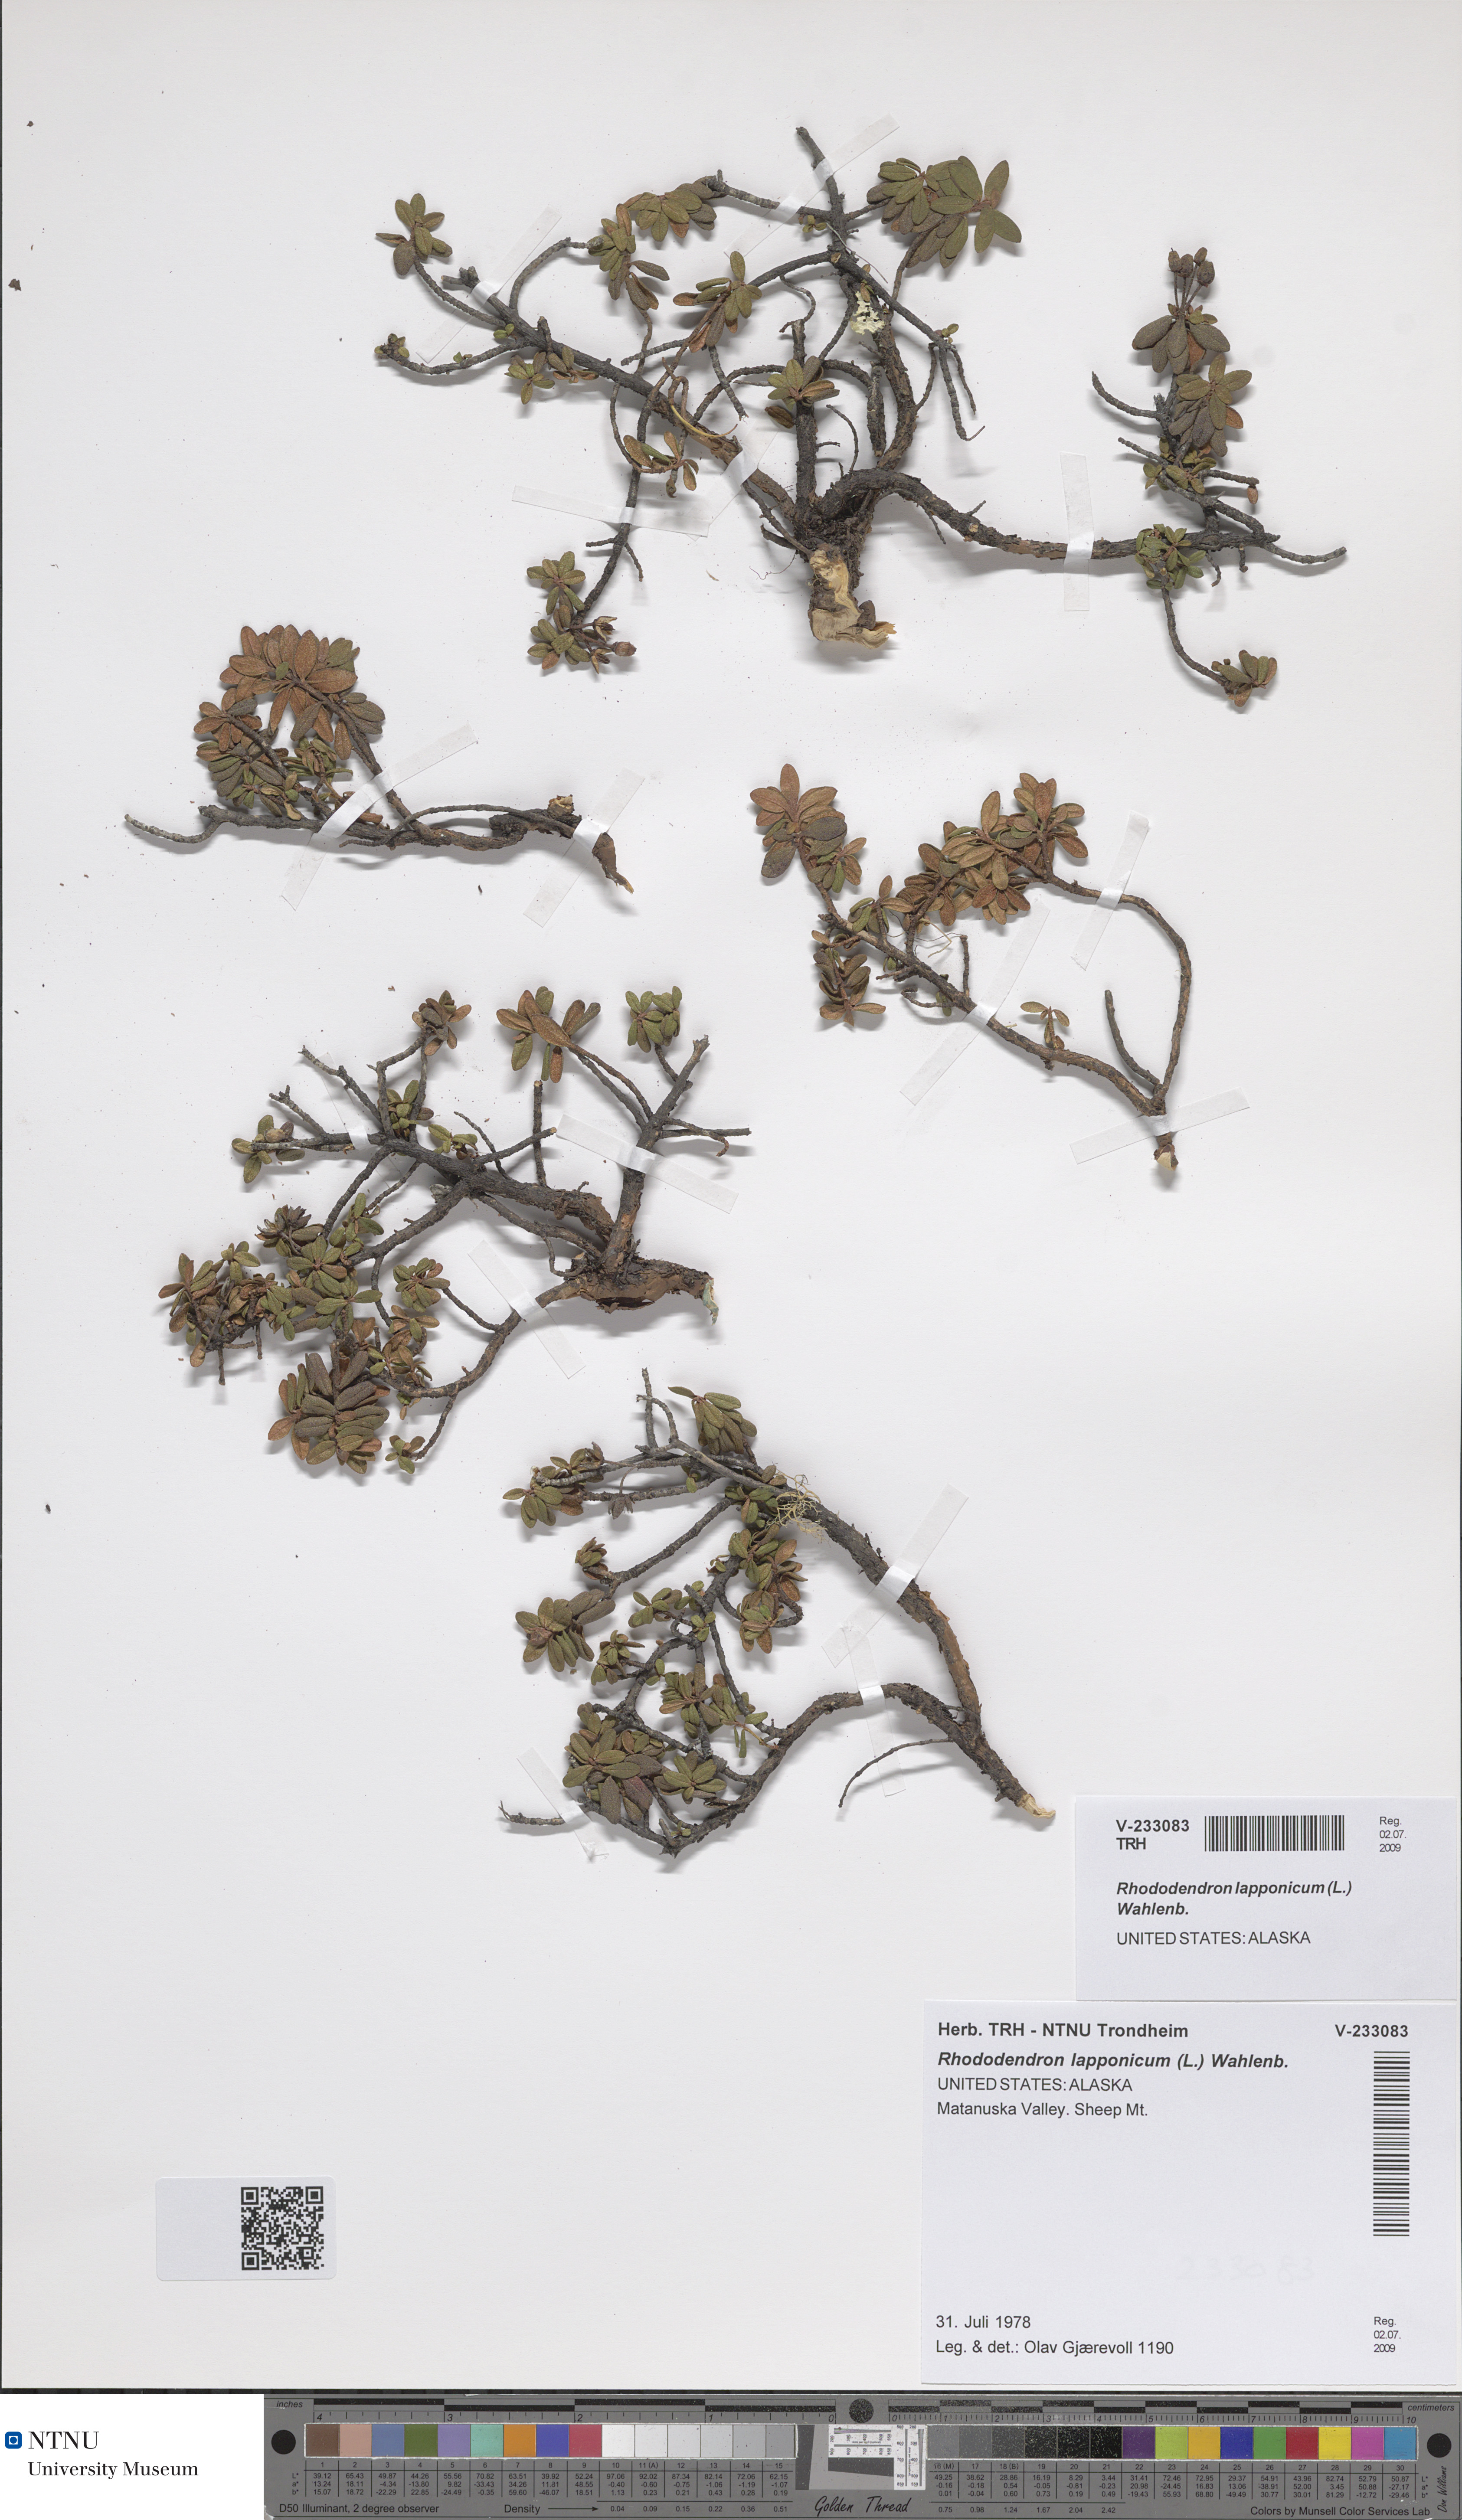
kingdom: Plantae
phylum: Tracheophyta
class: Magnoliopsida
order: Ericales
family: Ericaceae
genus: Rhododendron
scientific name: Rhododendron lapponicum
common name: Lapland rhododendron
